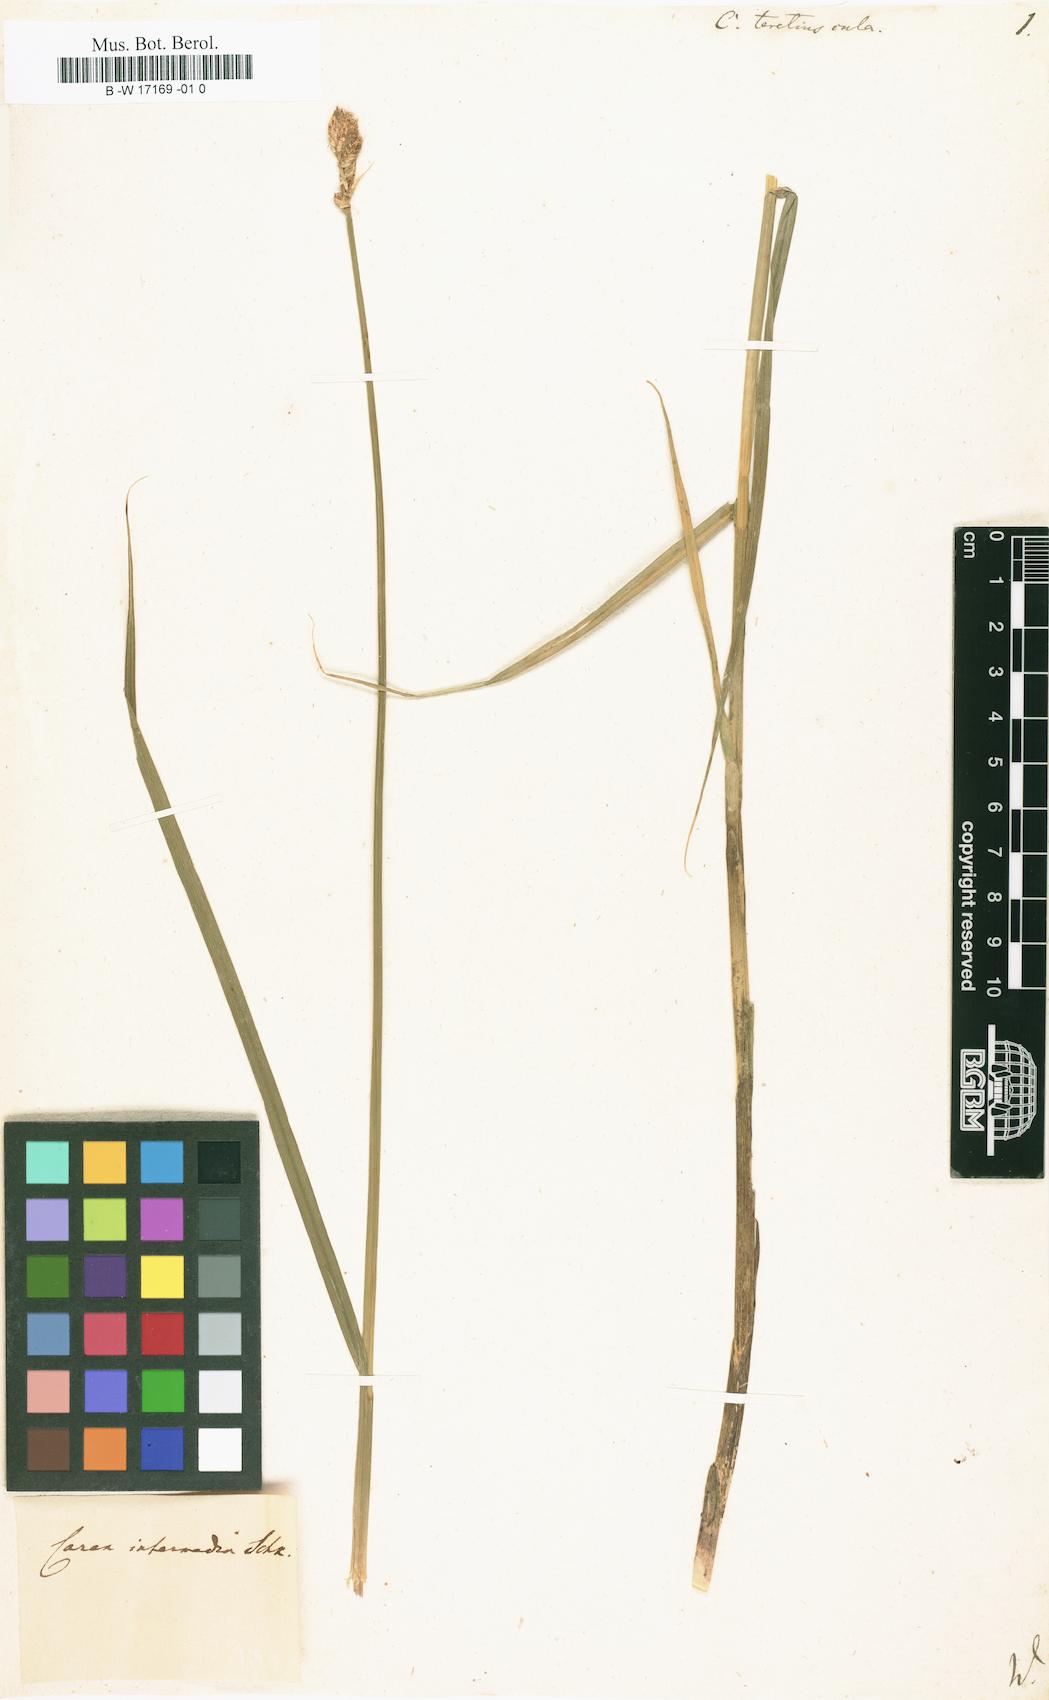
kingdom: Plantae
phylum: Tracheophyta
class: Liliopsida
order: Poales
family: Cyperaceae
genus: Carex
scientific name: Carex diandra
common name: Lesser tussock-sedge
